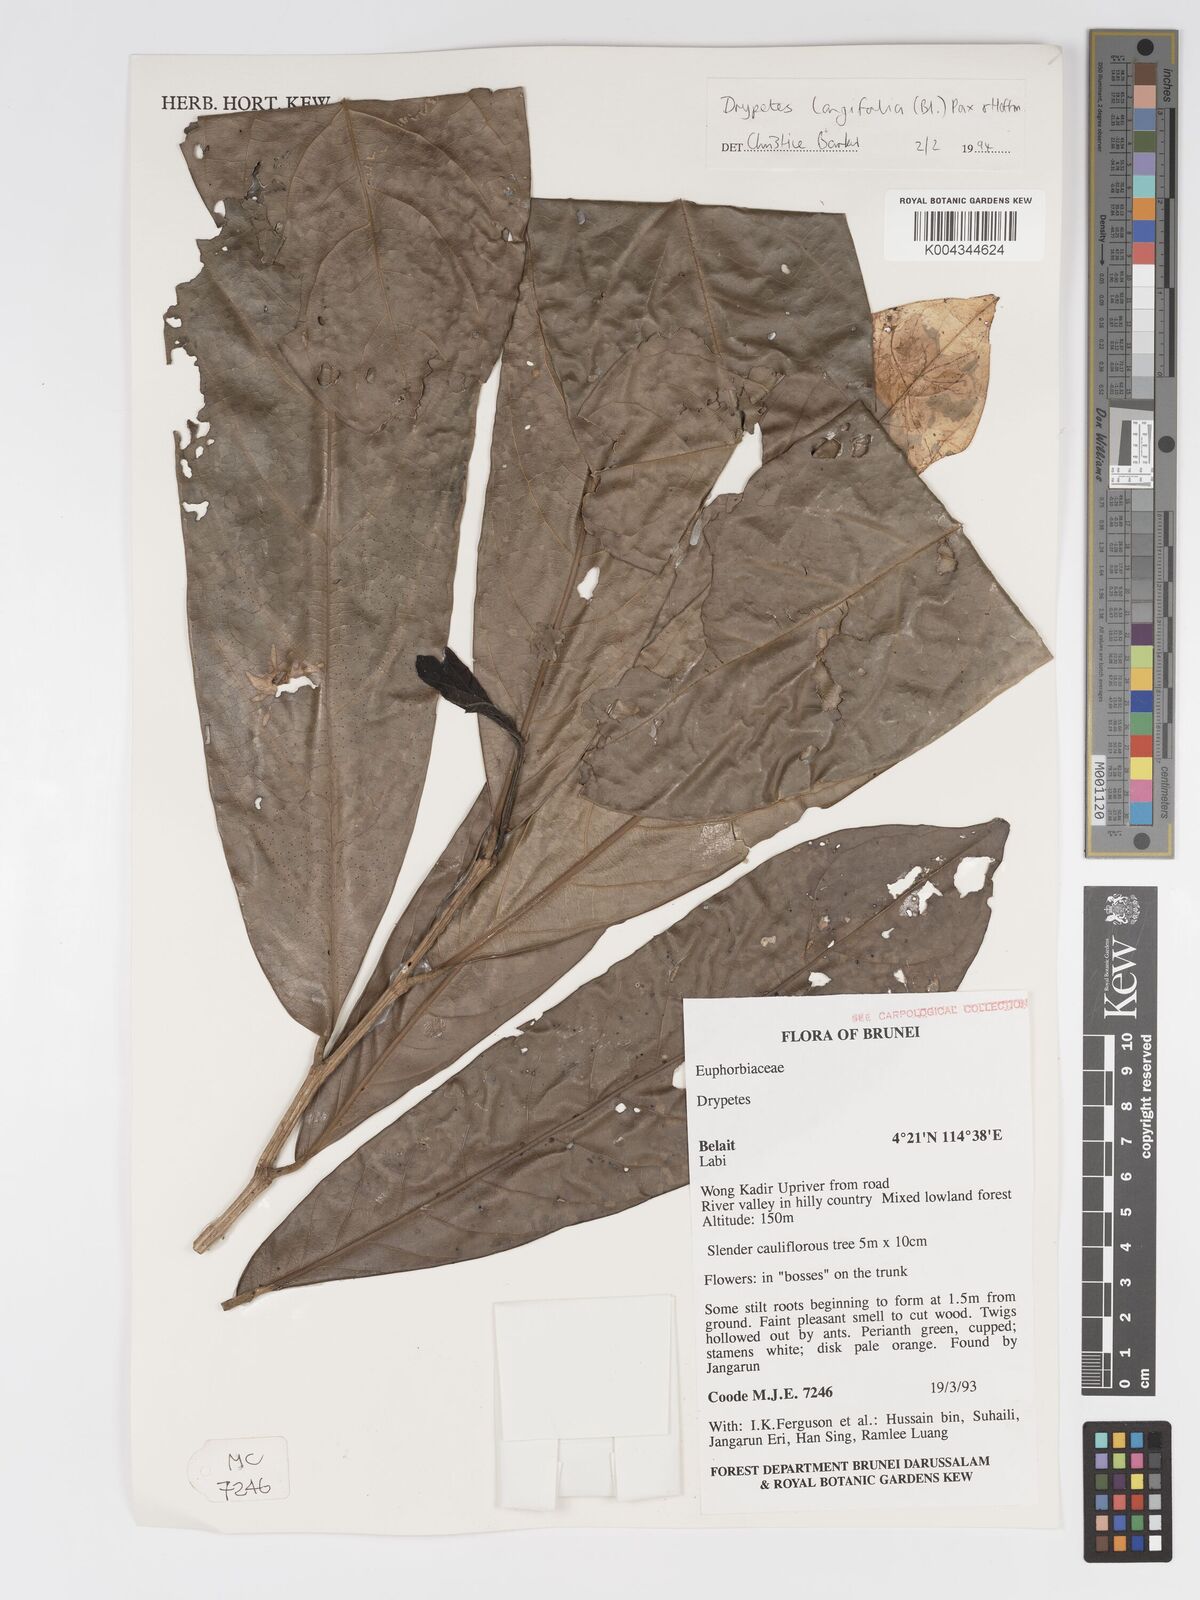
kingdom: Plantae
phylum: Tracheophyta
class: Magnoliopsida
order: Malpighiales
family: Putranjivaceae
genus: Drypetes
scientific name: Drypetes longifolia
